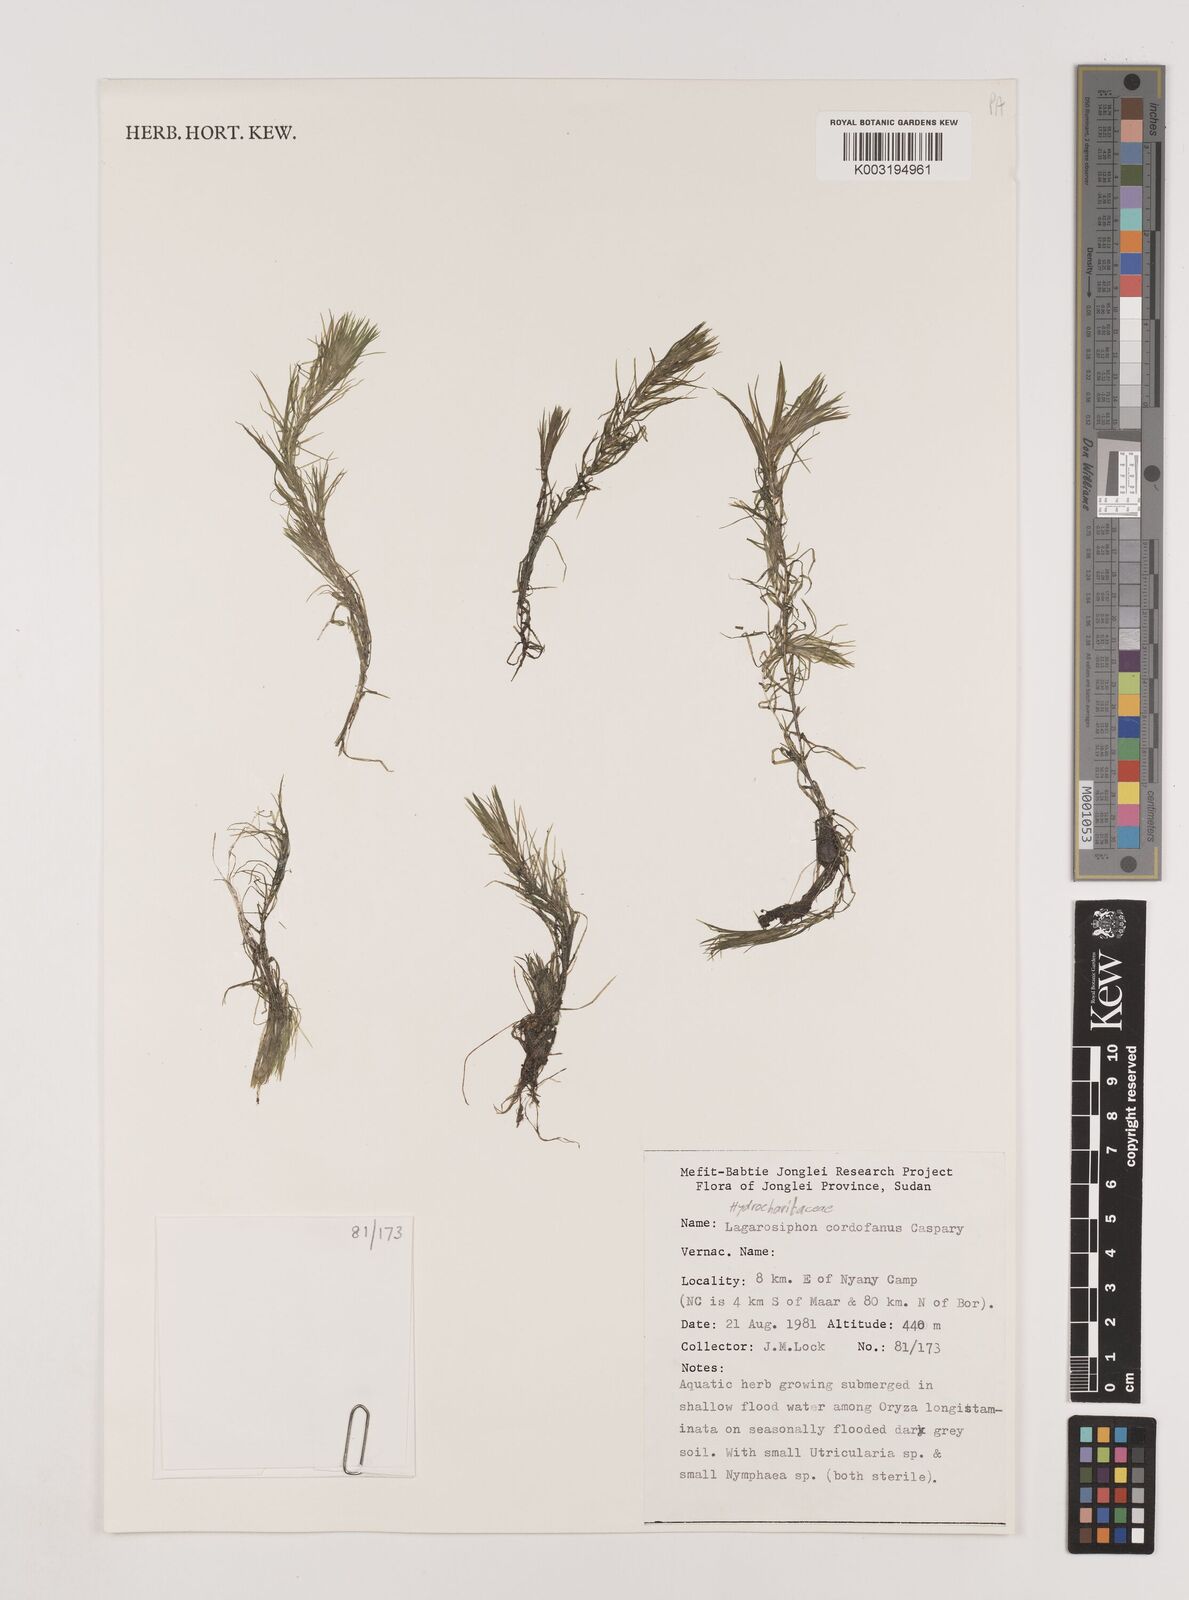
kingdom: Plantae
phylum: Tracheophyta
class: Liliopsida
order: Alismatales
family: Hydrocharitaceae
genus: Lagarosiphon
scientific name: Lagarosiphon cordofanus
